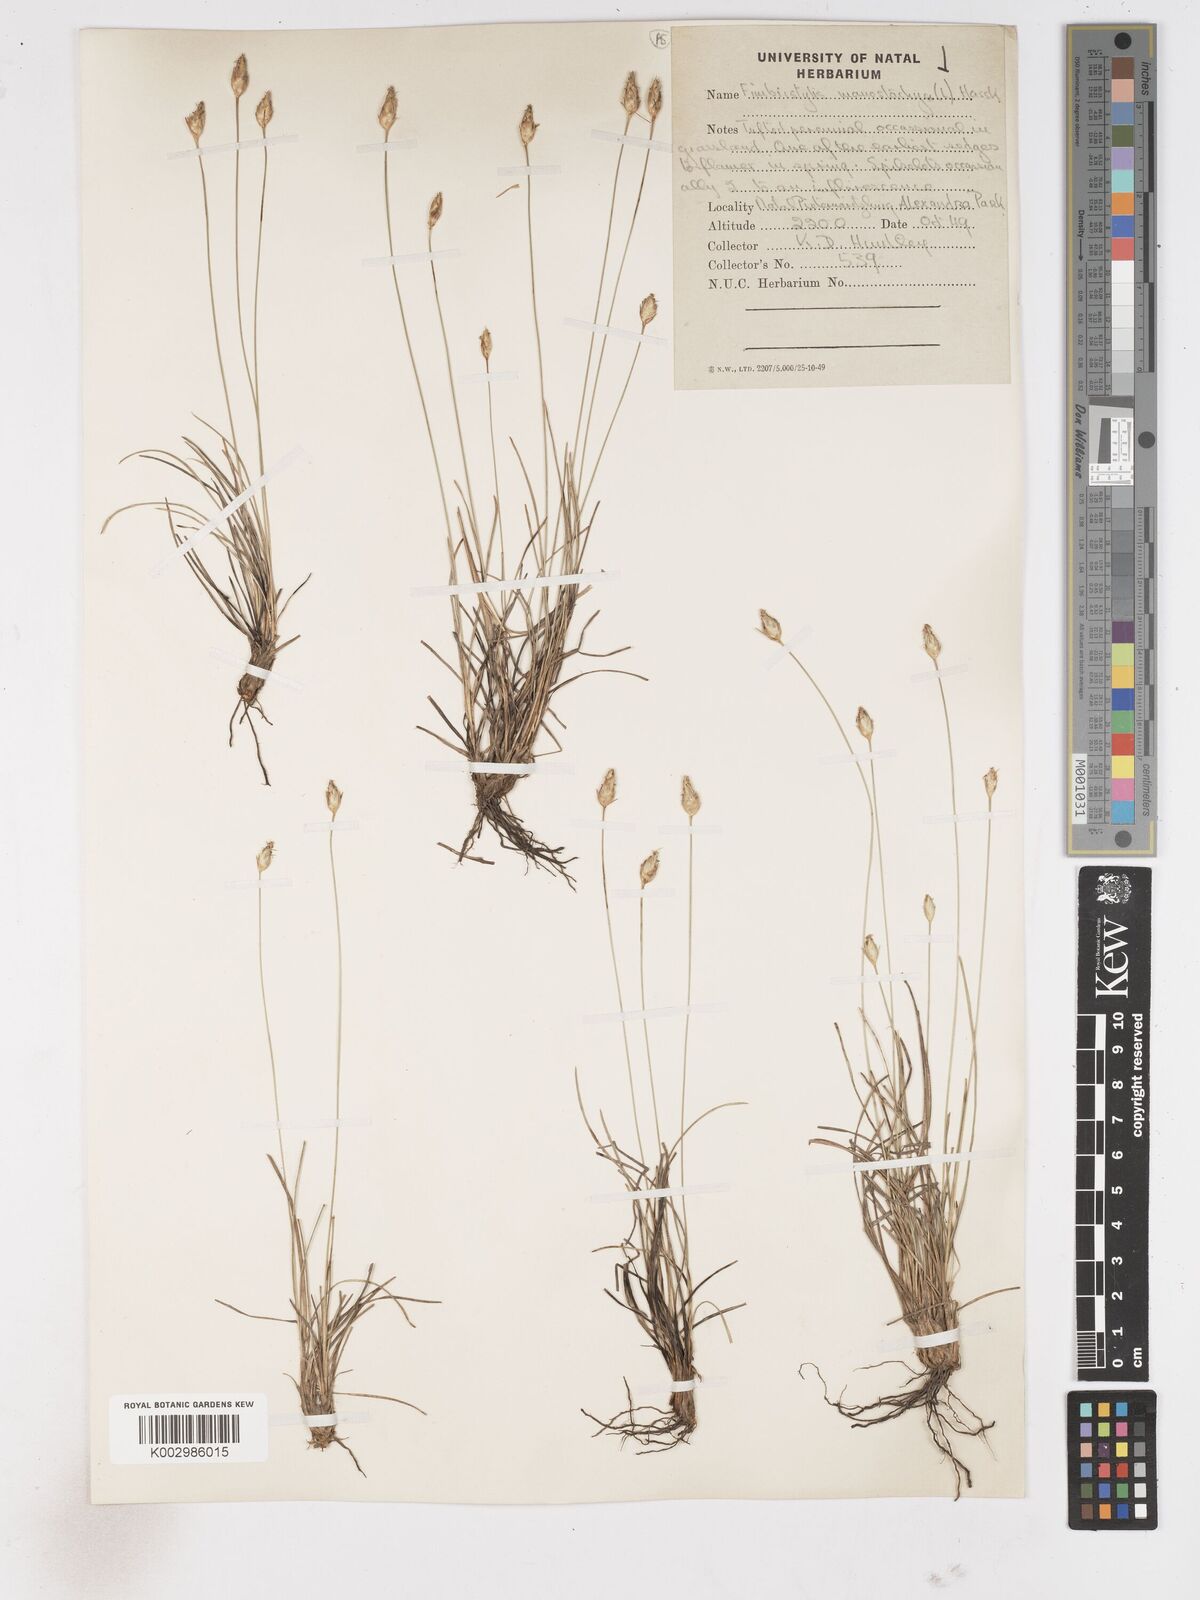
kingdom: Plantae
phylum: Tracheophyta
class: Liliopsida
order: Poales
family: Cyperaceae
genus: Abildgaardia
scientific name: Abildgaardia ovata
